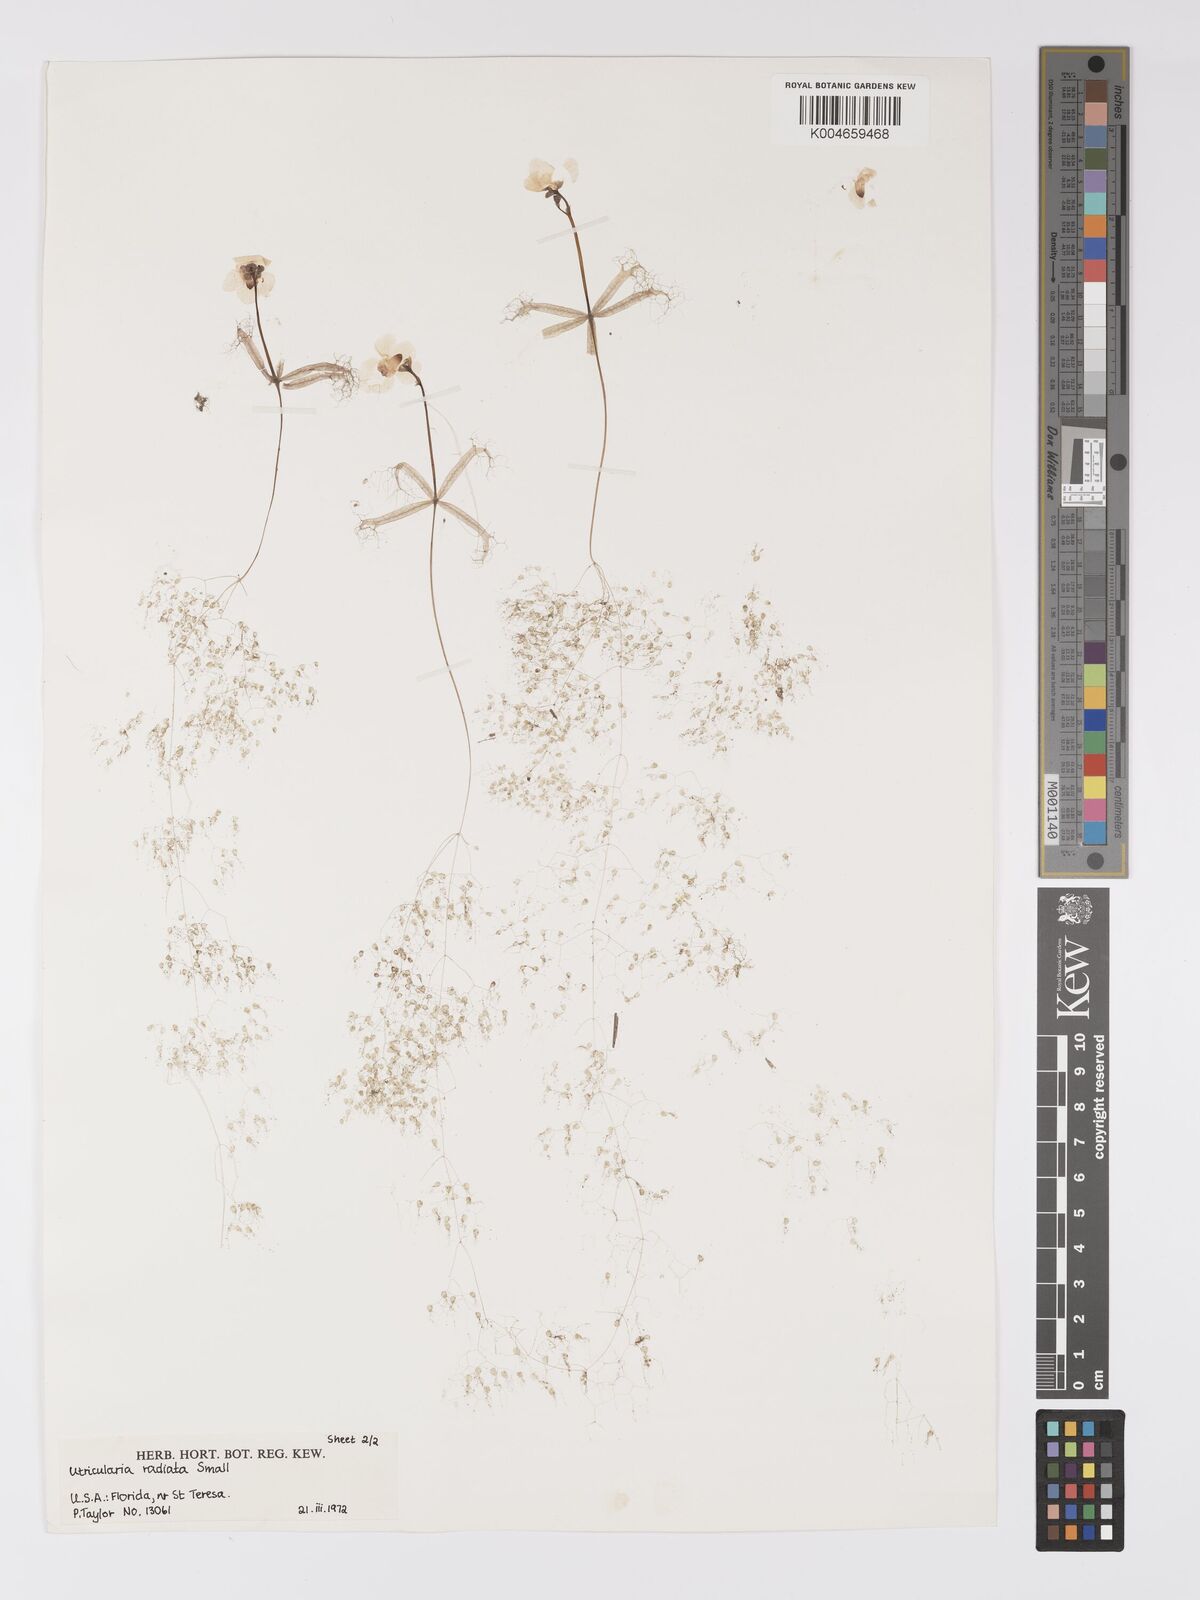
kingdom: Plantae
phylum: Tracheophyta
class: Magnoliopsida
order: Lamiales
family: Lentibulariaceae
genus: Utricularia
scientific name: Utricularia radiata
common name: Floating bladderwort
